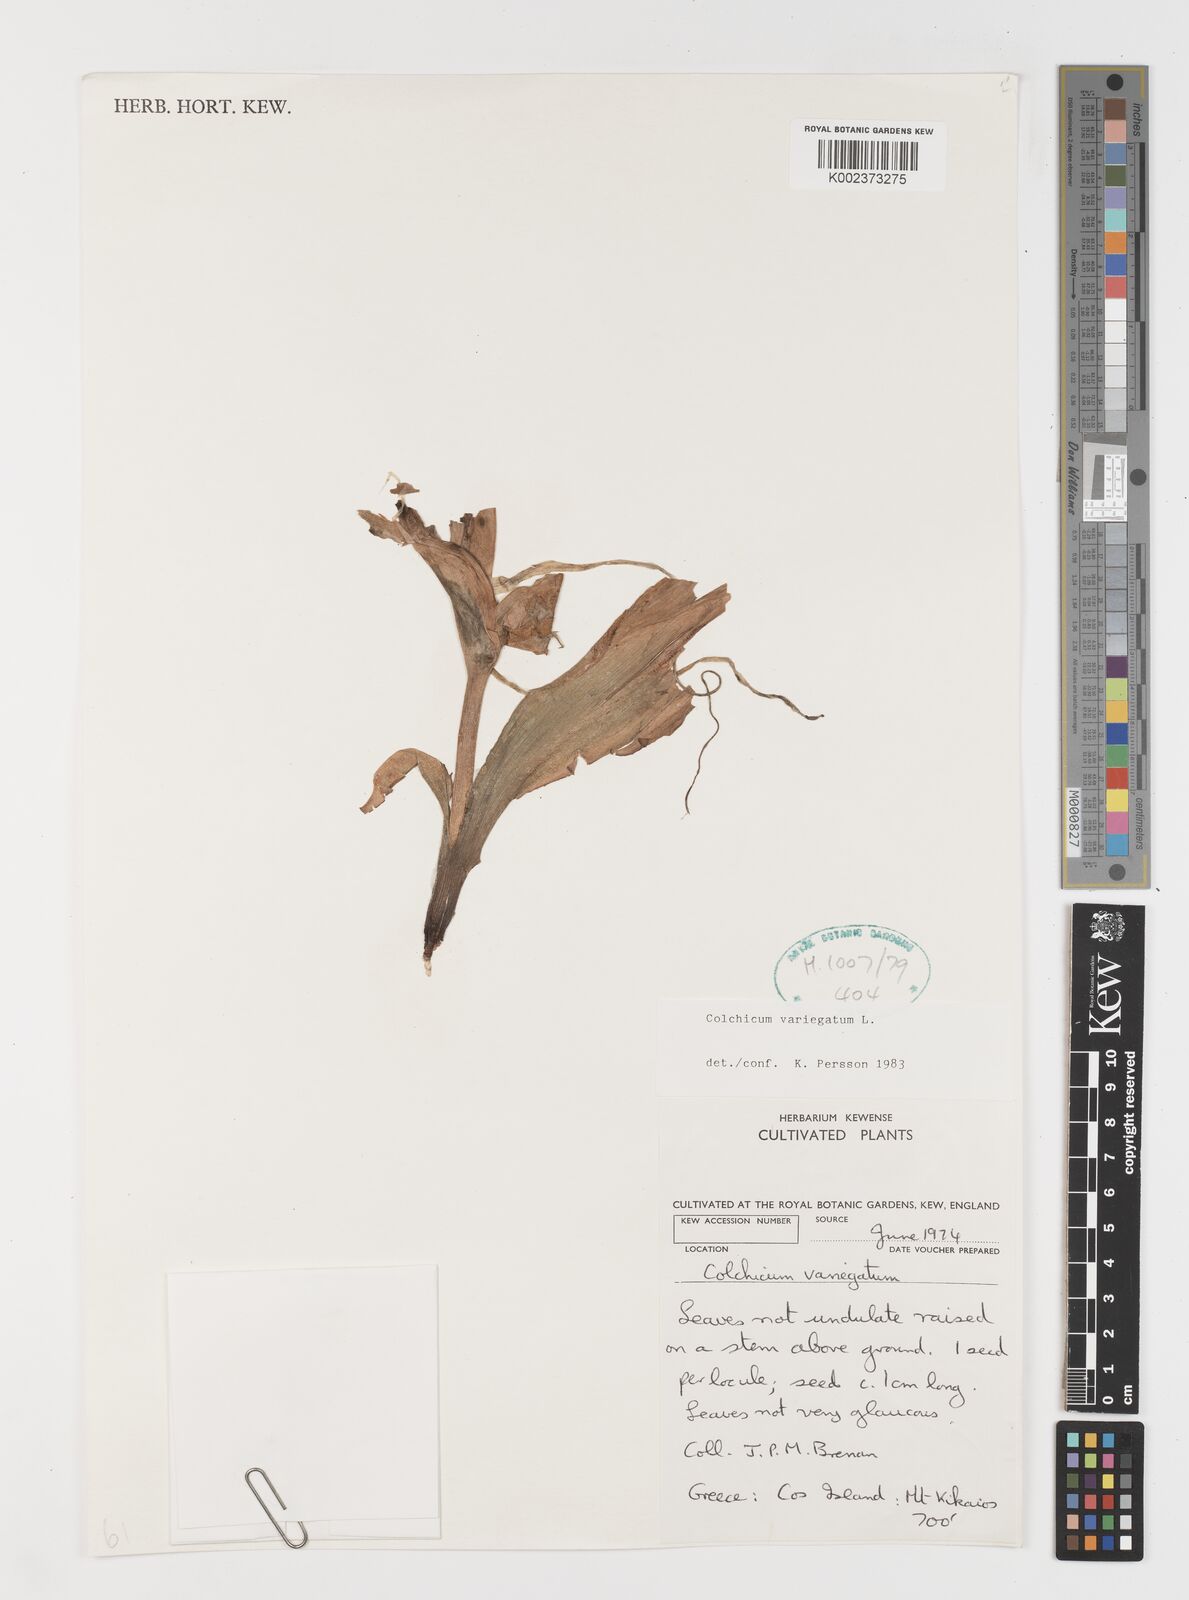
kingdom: Plantae
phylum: Tracheophyta
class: Liliopsida
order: Liliales
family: Colchicaceae
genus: Colchicum
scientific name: Colchicum variegatum
